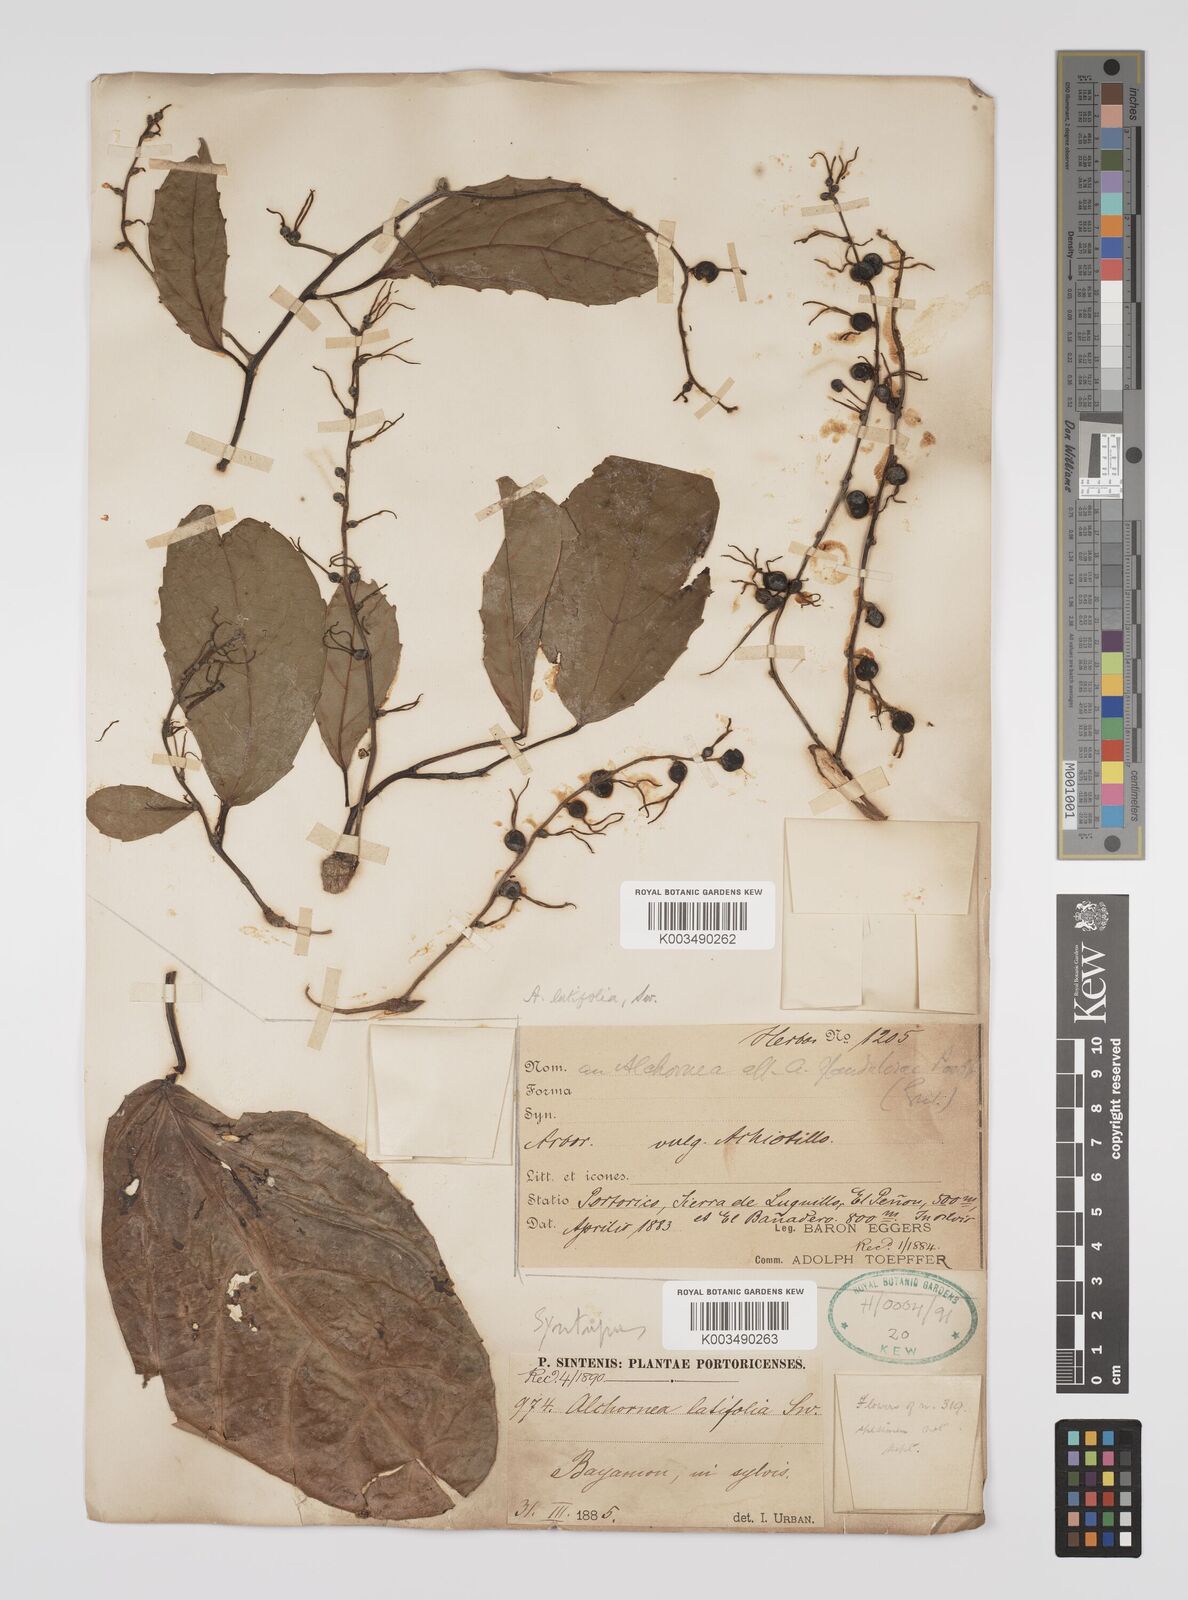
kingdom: Plantae
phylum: Tracheophyta
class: Magnoliopsida
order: Malpighiales
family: Euphorbiaceae
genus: Alchornea
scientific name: Alchornea latifolia
